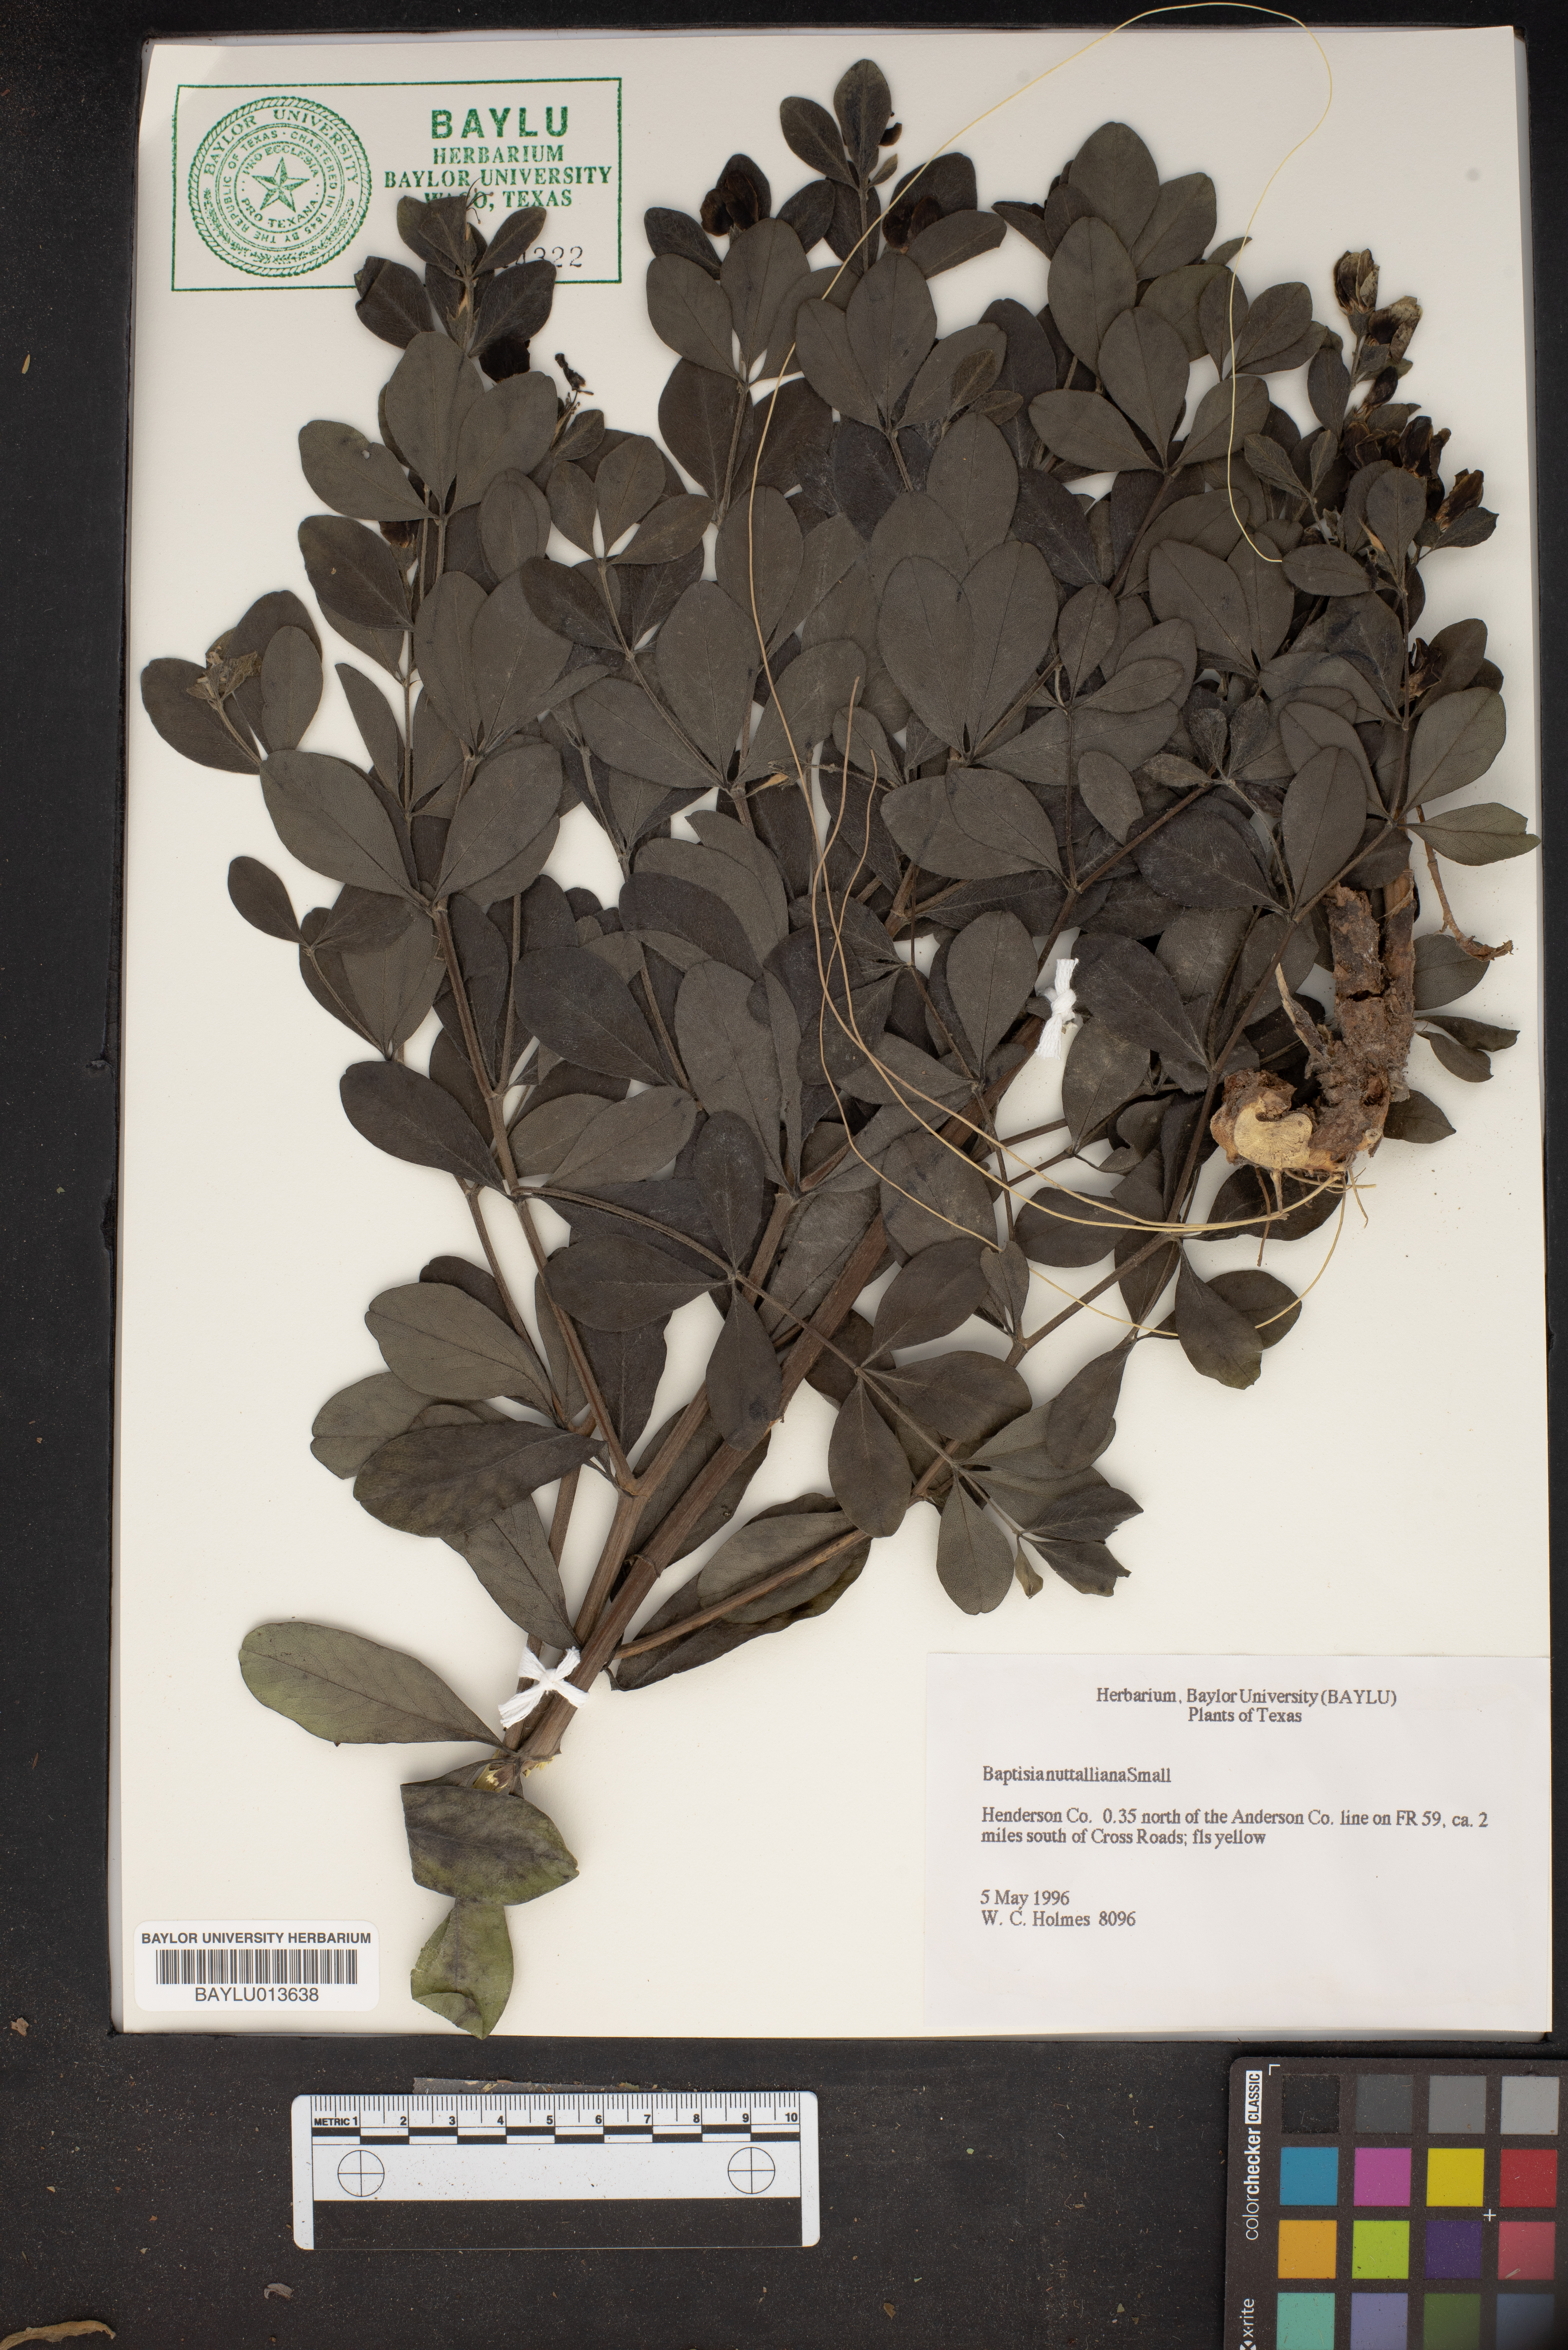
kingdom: Plantae
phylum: Tracheophyta
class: Magnoliopsida
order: Fabales
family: Fabaceae
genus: Baptisia
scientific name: Baptisia nuttalliana
